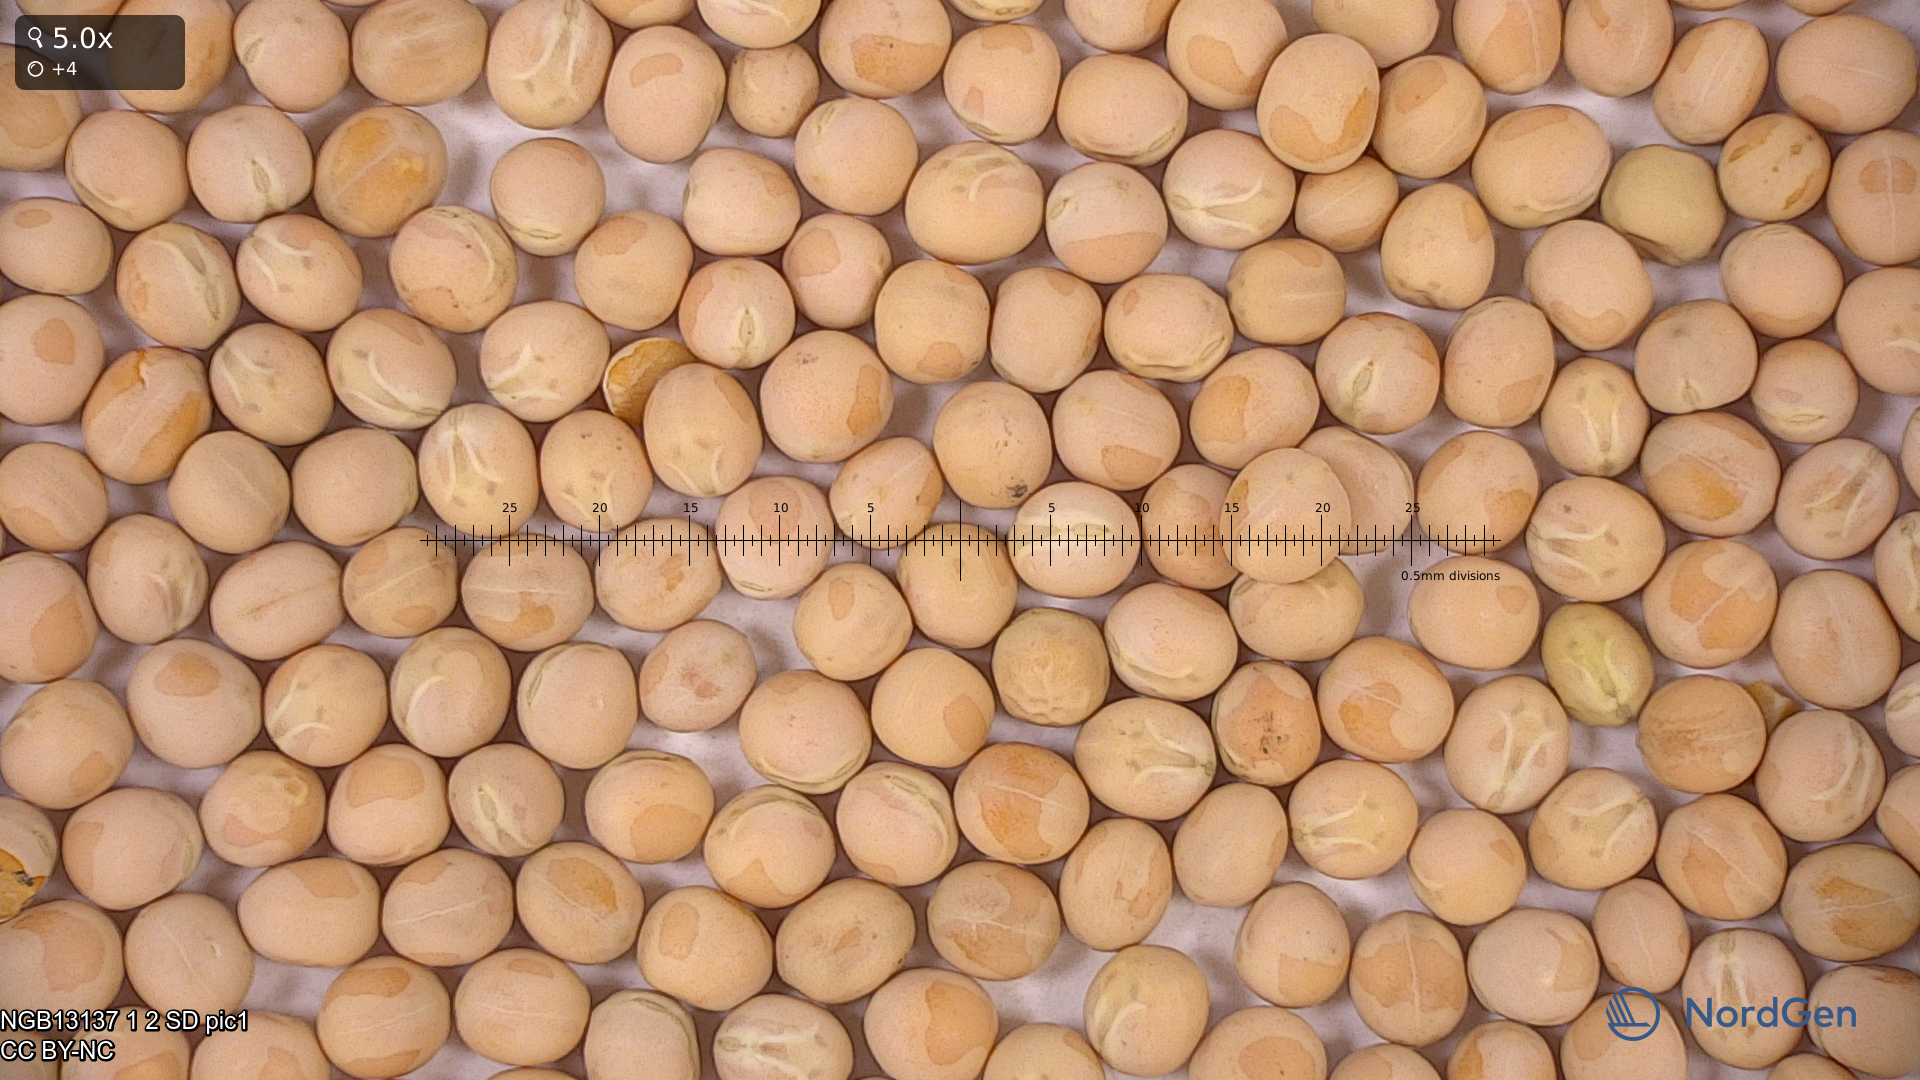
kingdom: Plantae
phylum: Tracheophyta
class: Magnoliopsida
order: Fabales
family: Fabaceae
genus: Lathyrus
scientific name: Lathyrus oleraceus
